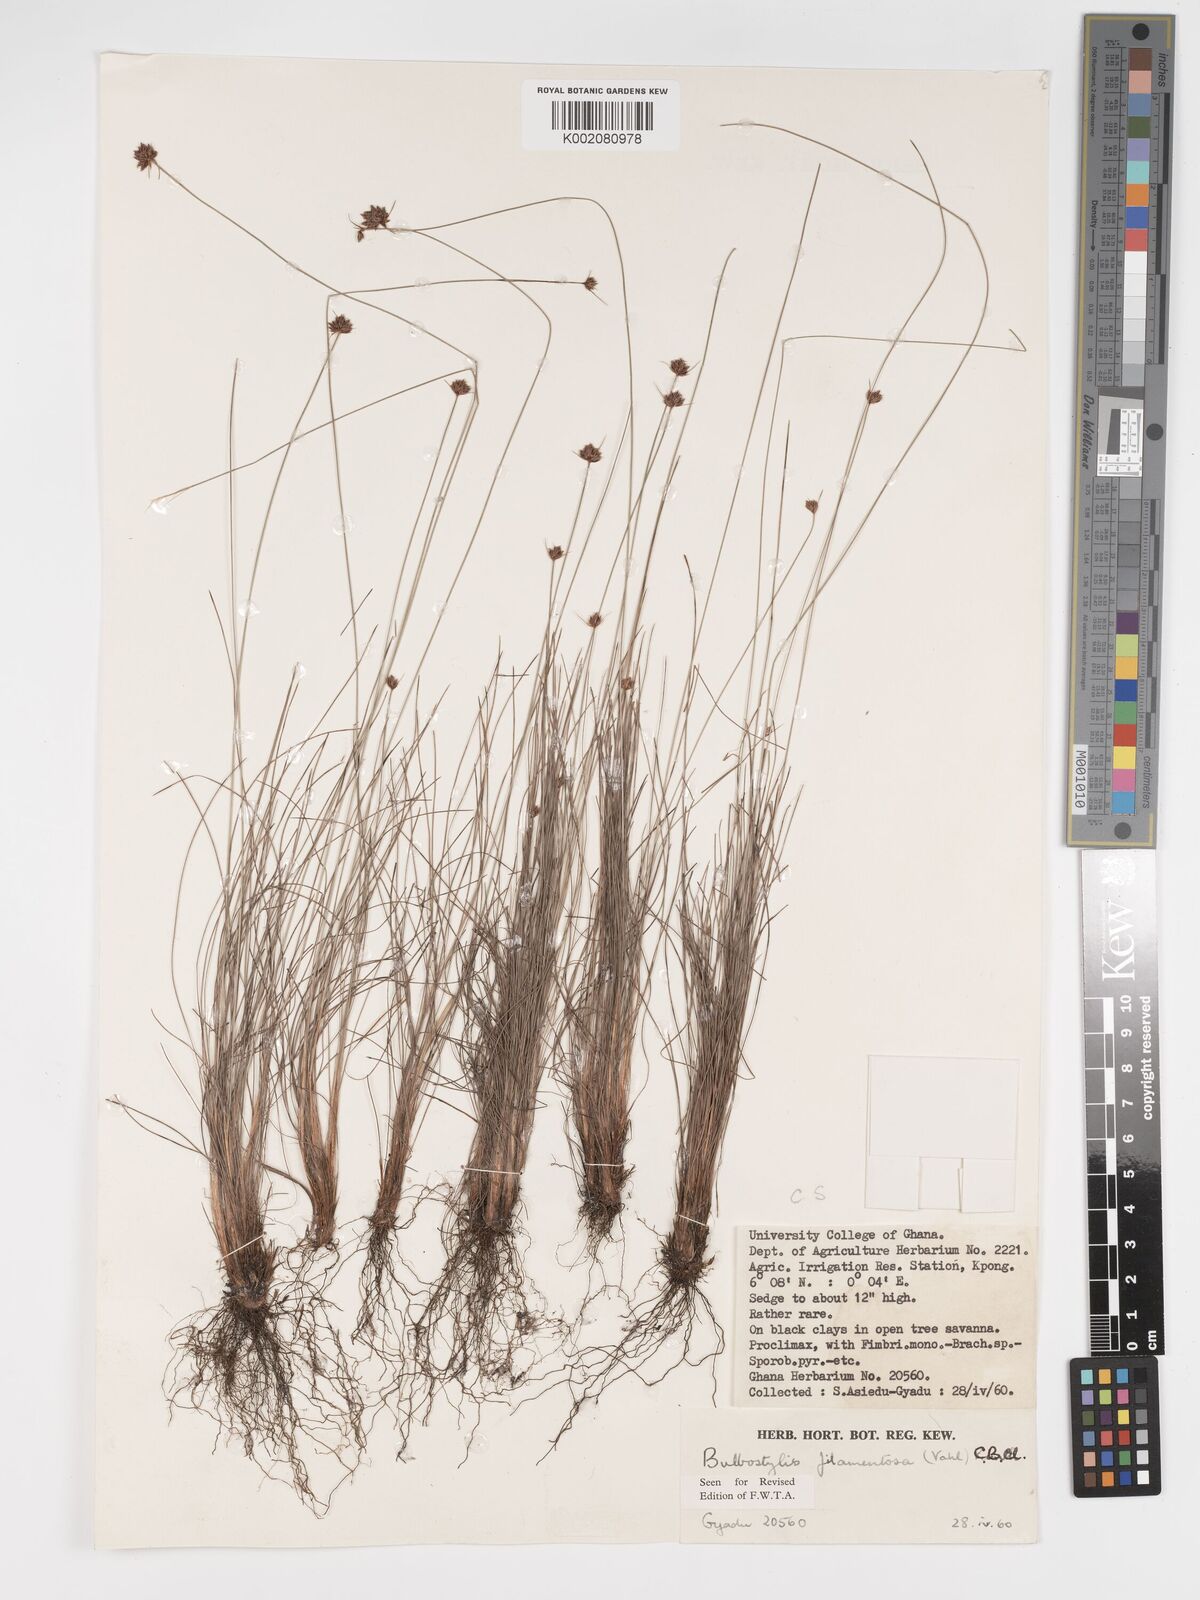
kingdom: Plantae
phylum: Tracheophyta
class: Liliopsida
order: Poales
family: Cyperaceae
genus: Bulbostylis
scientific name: Bulbostylis filamentosa
